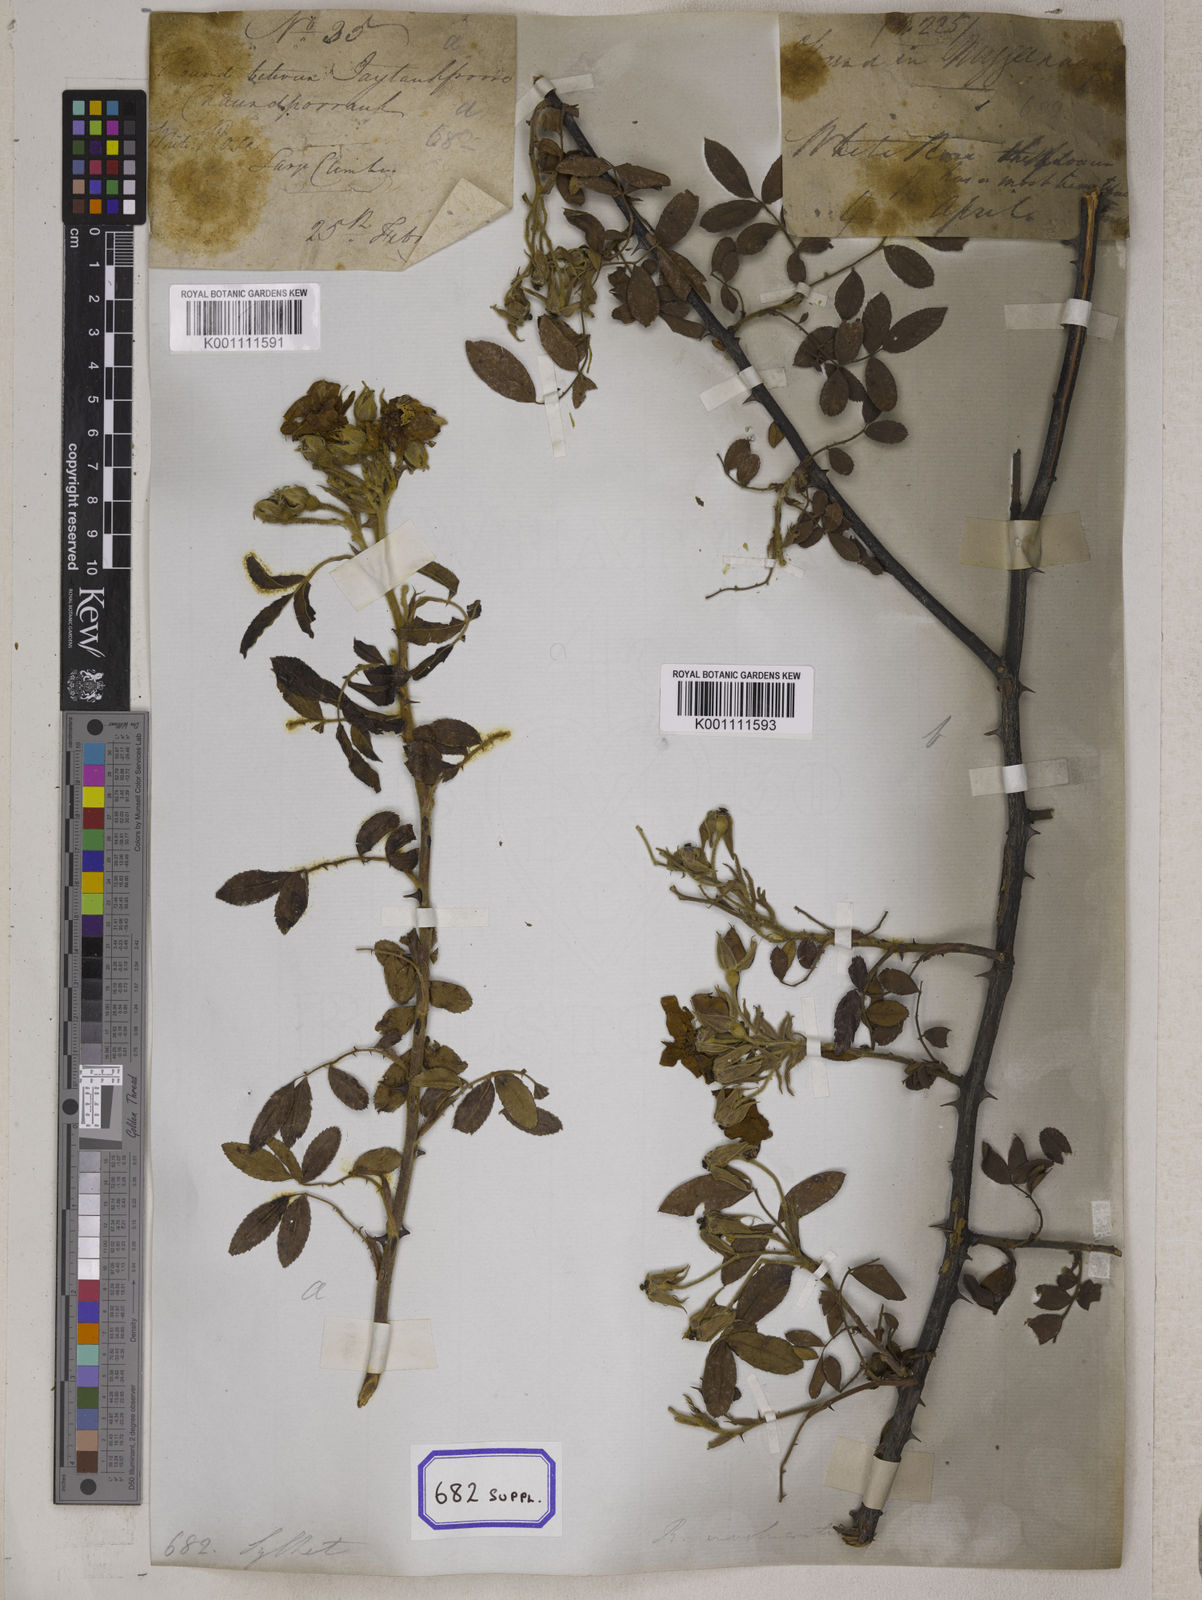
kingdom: Plantae
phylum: Tracheophyta
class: Magnoliopsida
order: Rosales
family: Rosaceae
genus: Rosa
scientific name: Rosa clinophylla
